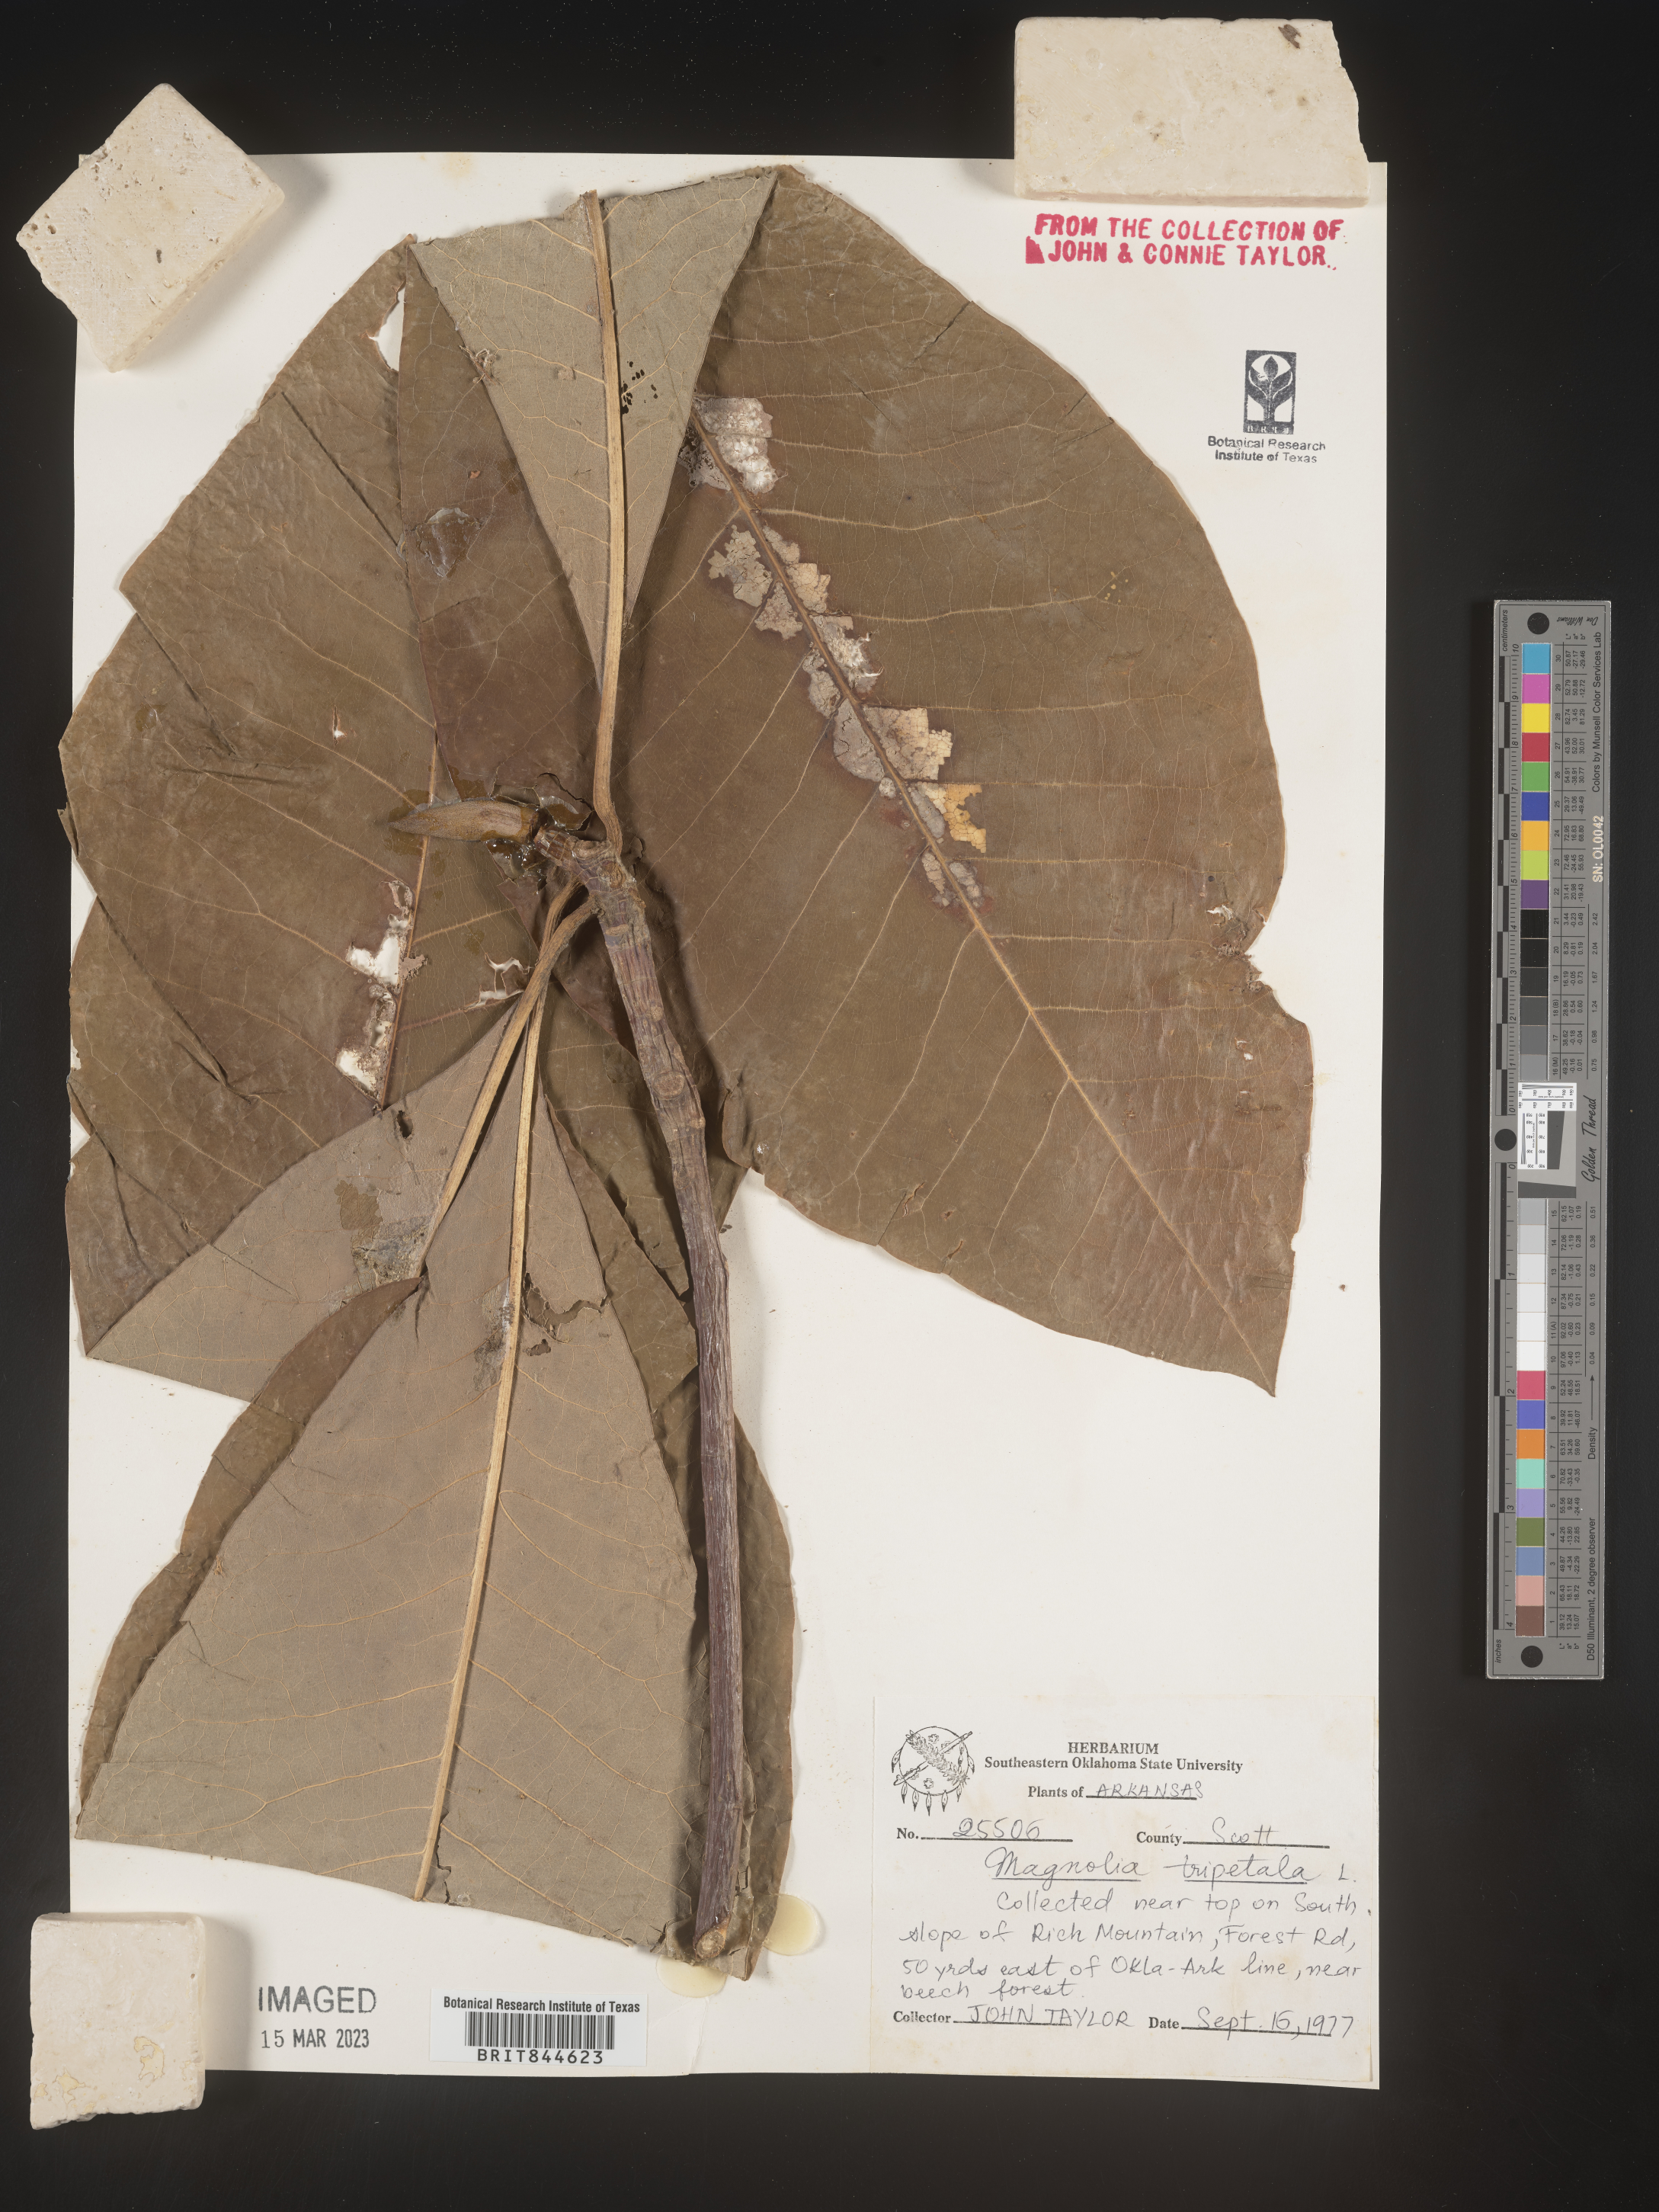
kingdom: Plantae
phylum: Tracheophyta
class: Magnoliopsida
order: Magnoliales
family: Magnoliaceae
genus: Magnolia
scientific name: Magnolia tripetala
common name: Umbrella magnolia
